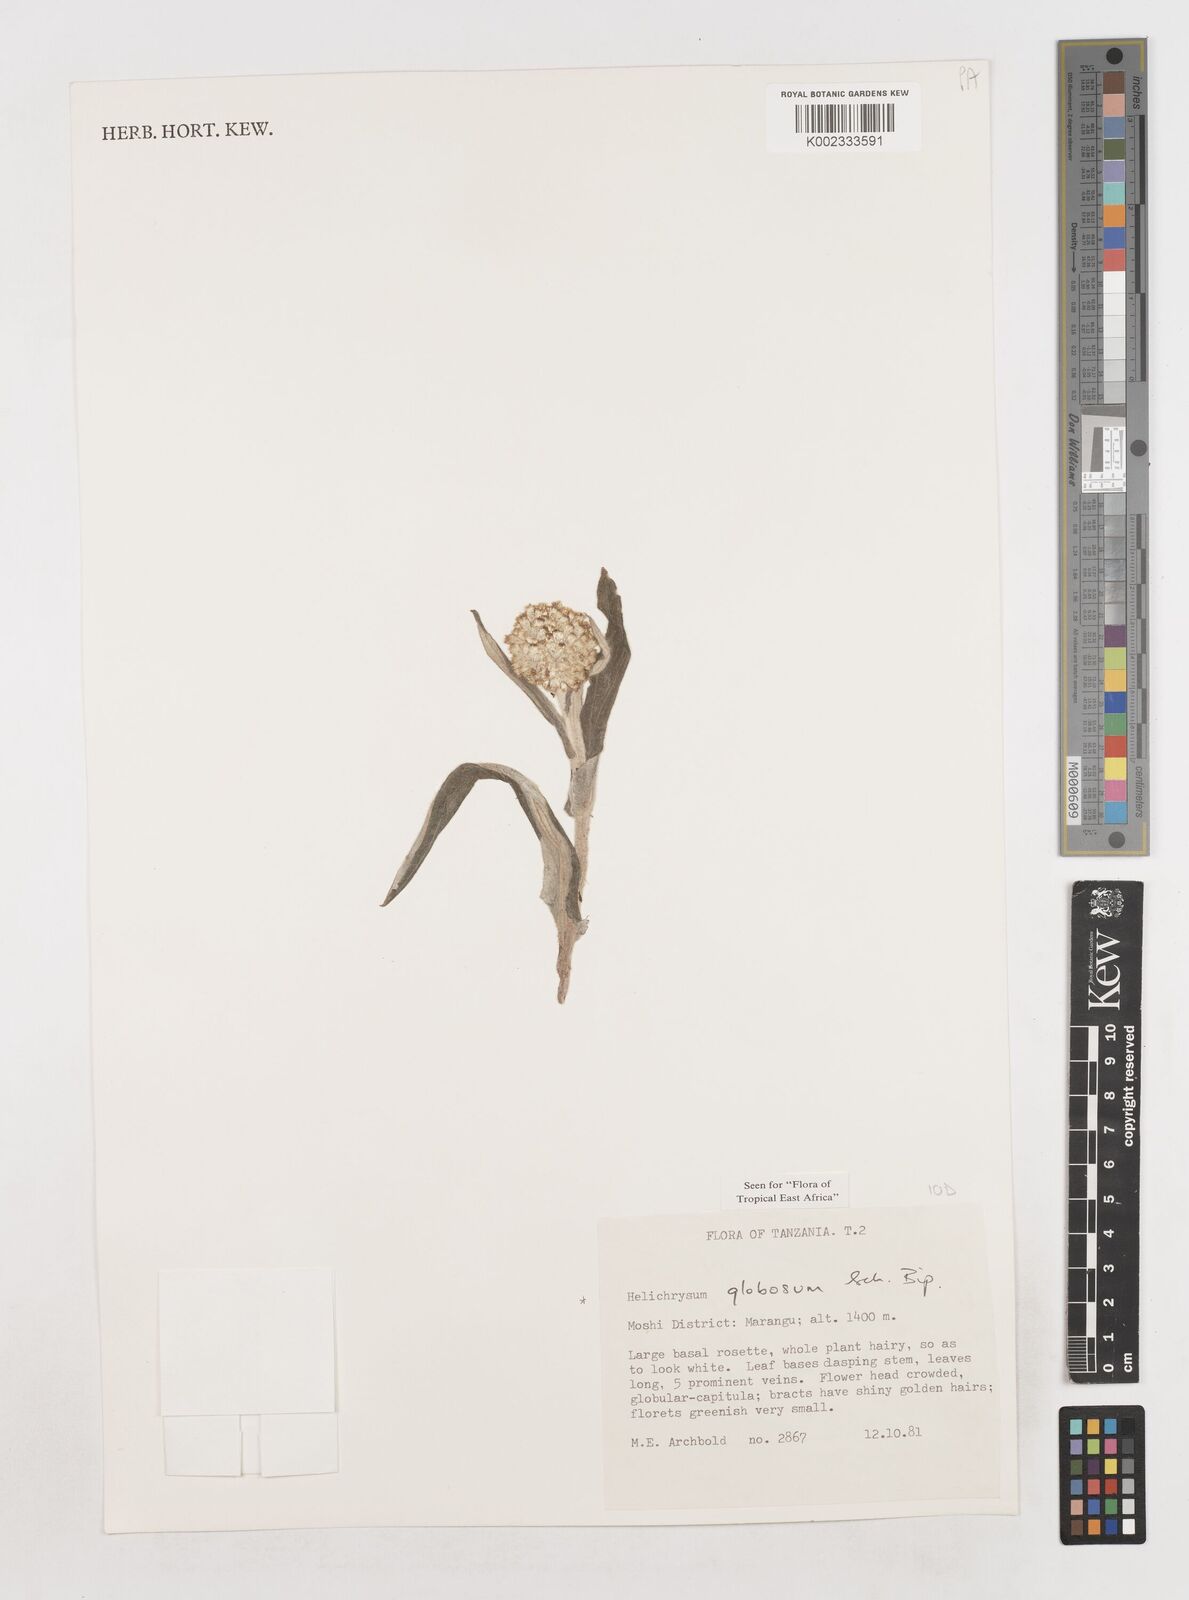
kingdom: Plantae
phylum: Tracheophyta
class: Magnoliopsida
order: Asterales
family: Asteraceae
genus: Helichrysum
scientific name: Helichrysum globosum
